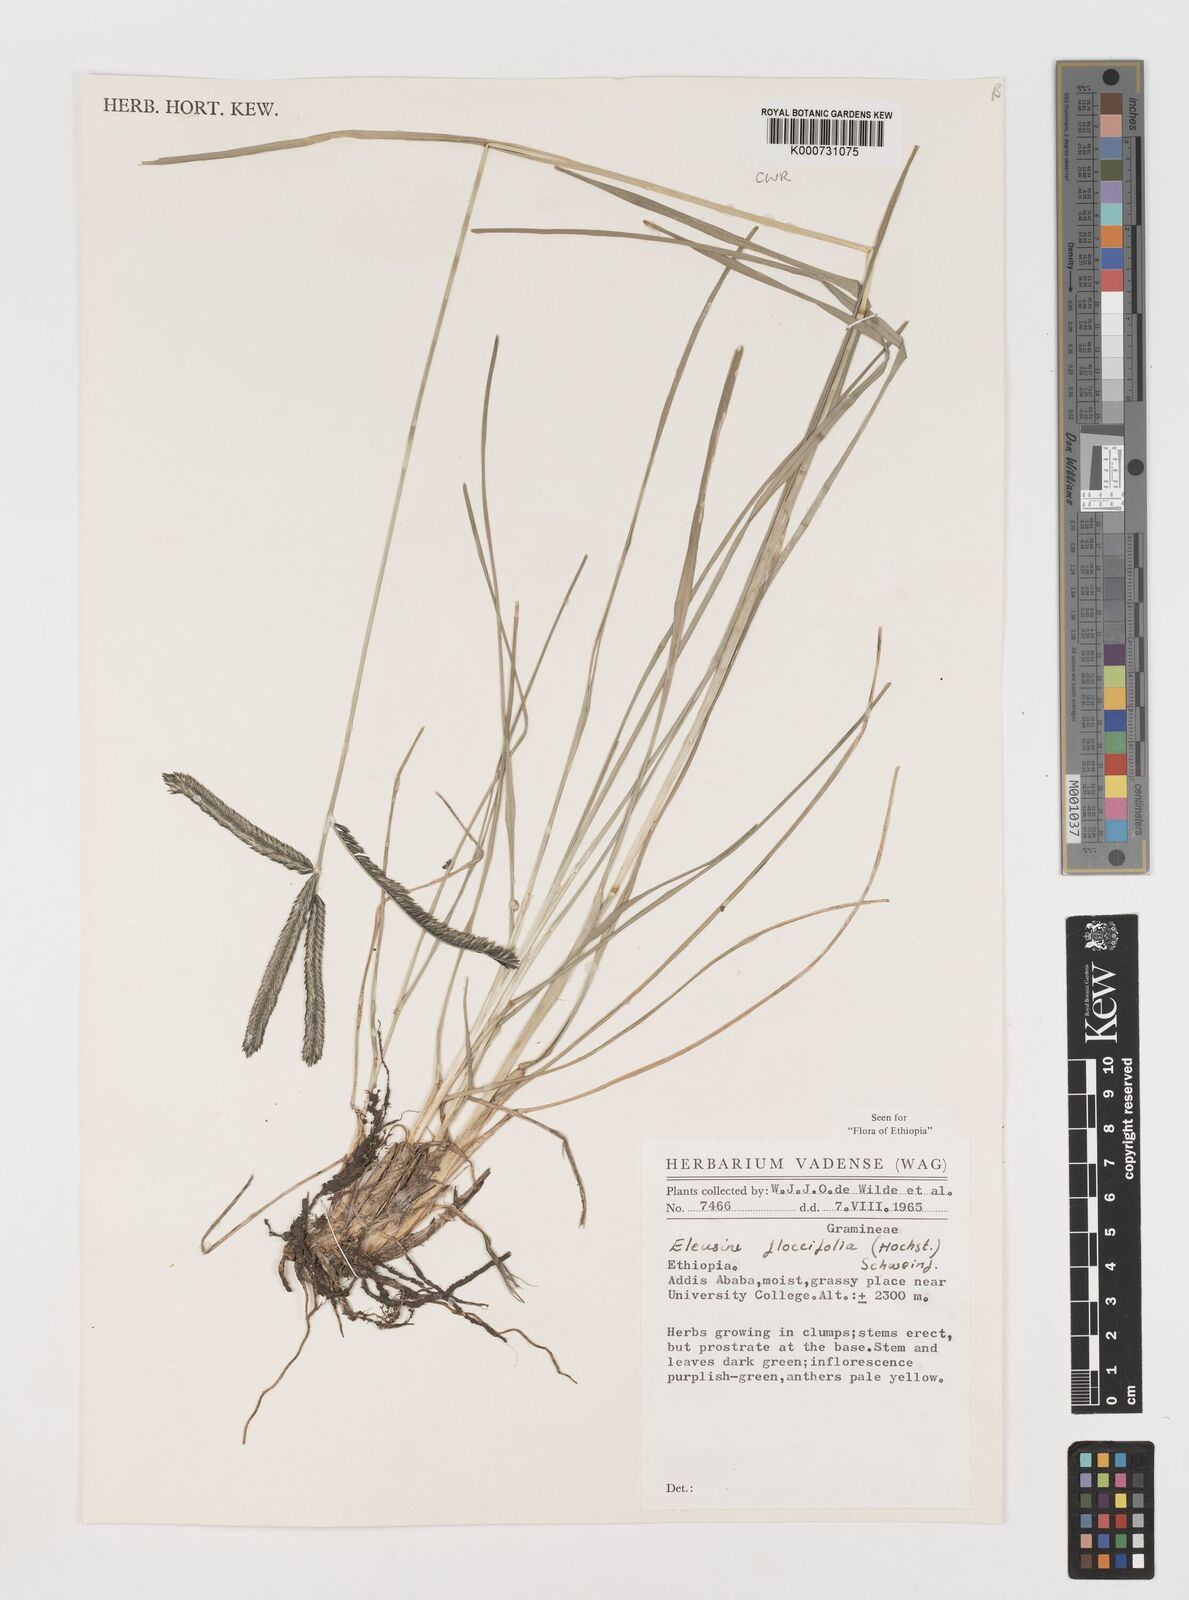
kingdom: Plantae
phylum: Tracheophyta
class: Liliopsida
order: Poales
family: Poaceae
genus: Eleusine
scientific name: Eleusine floccifolia
